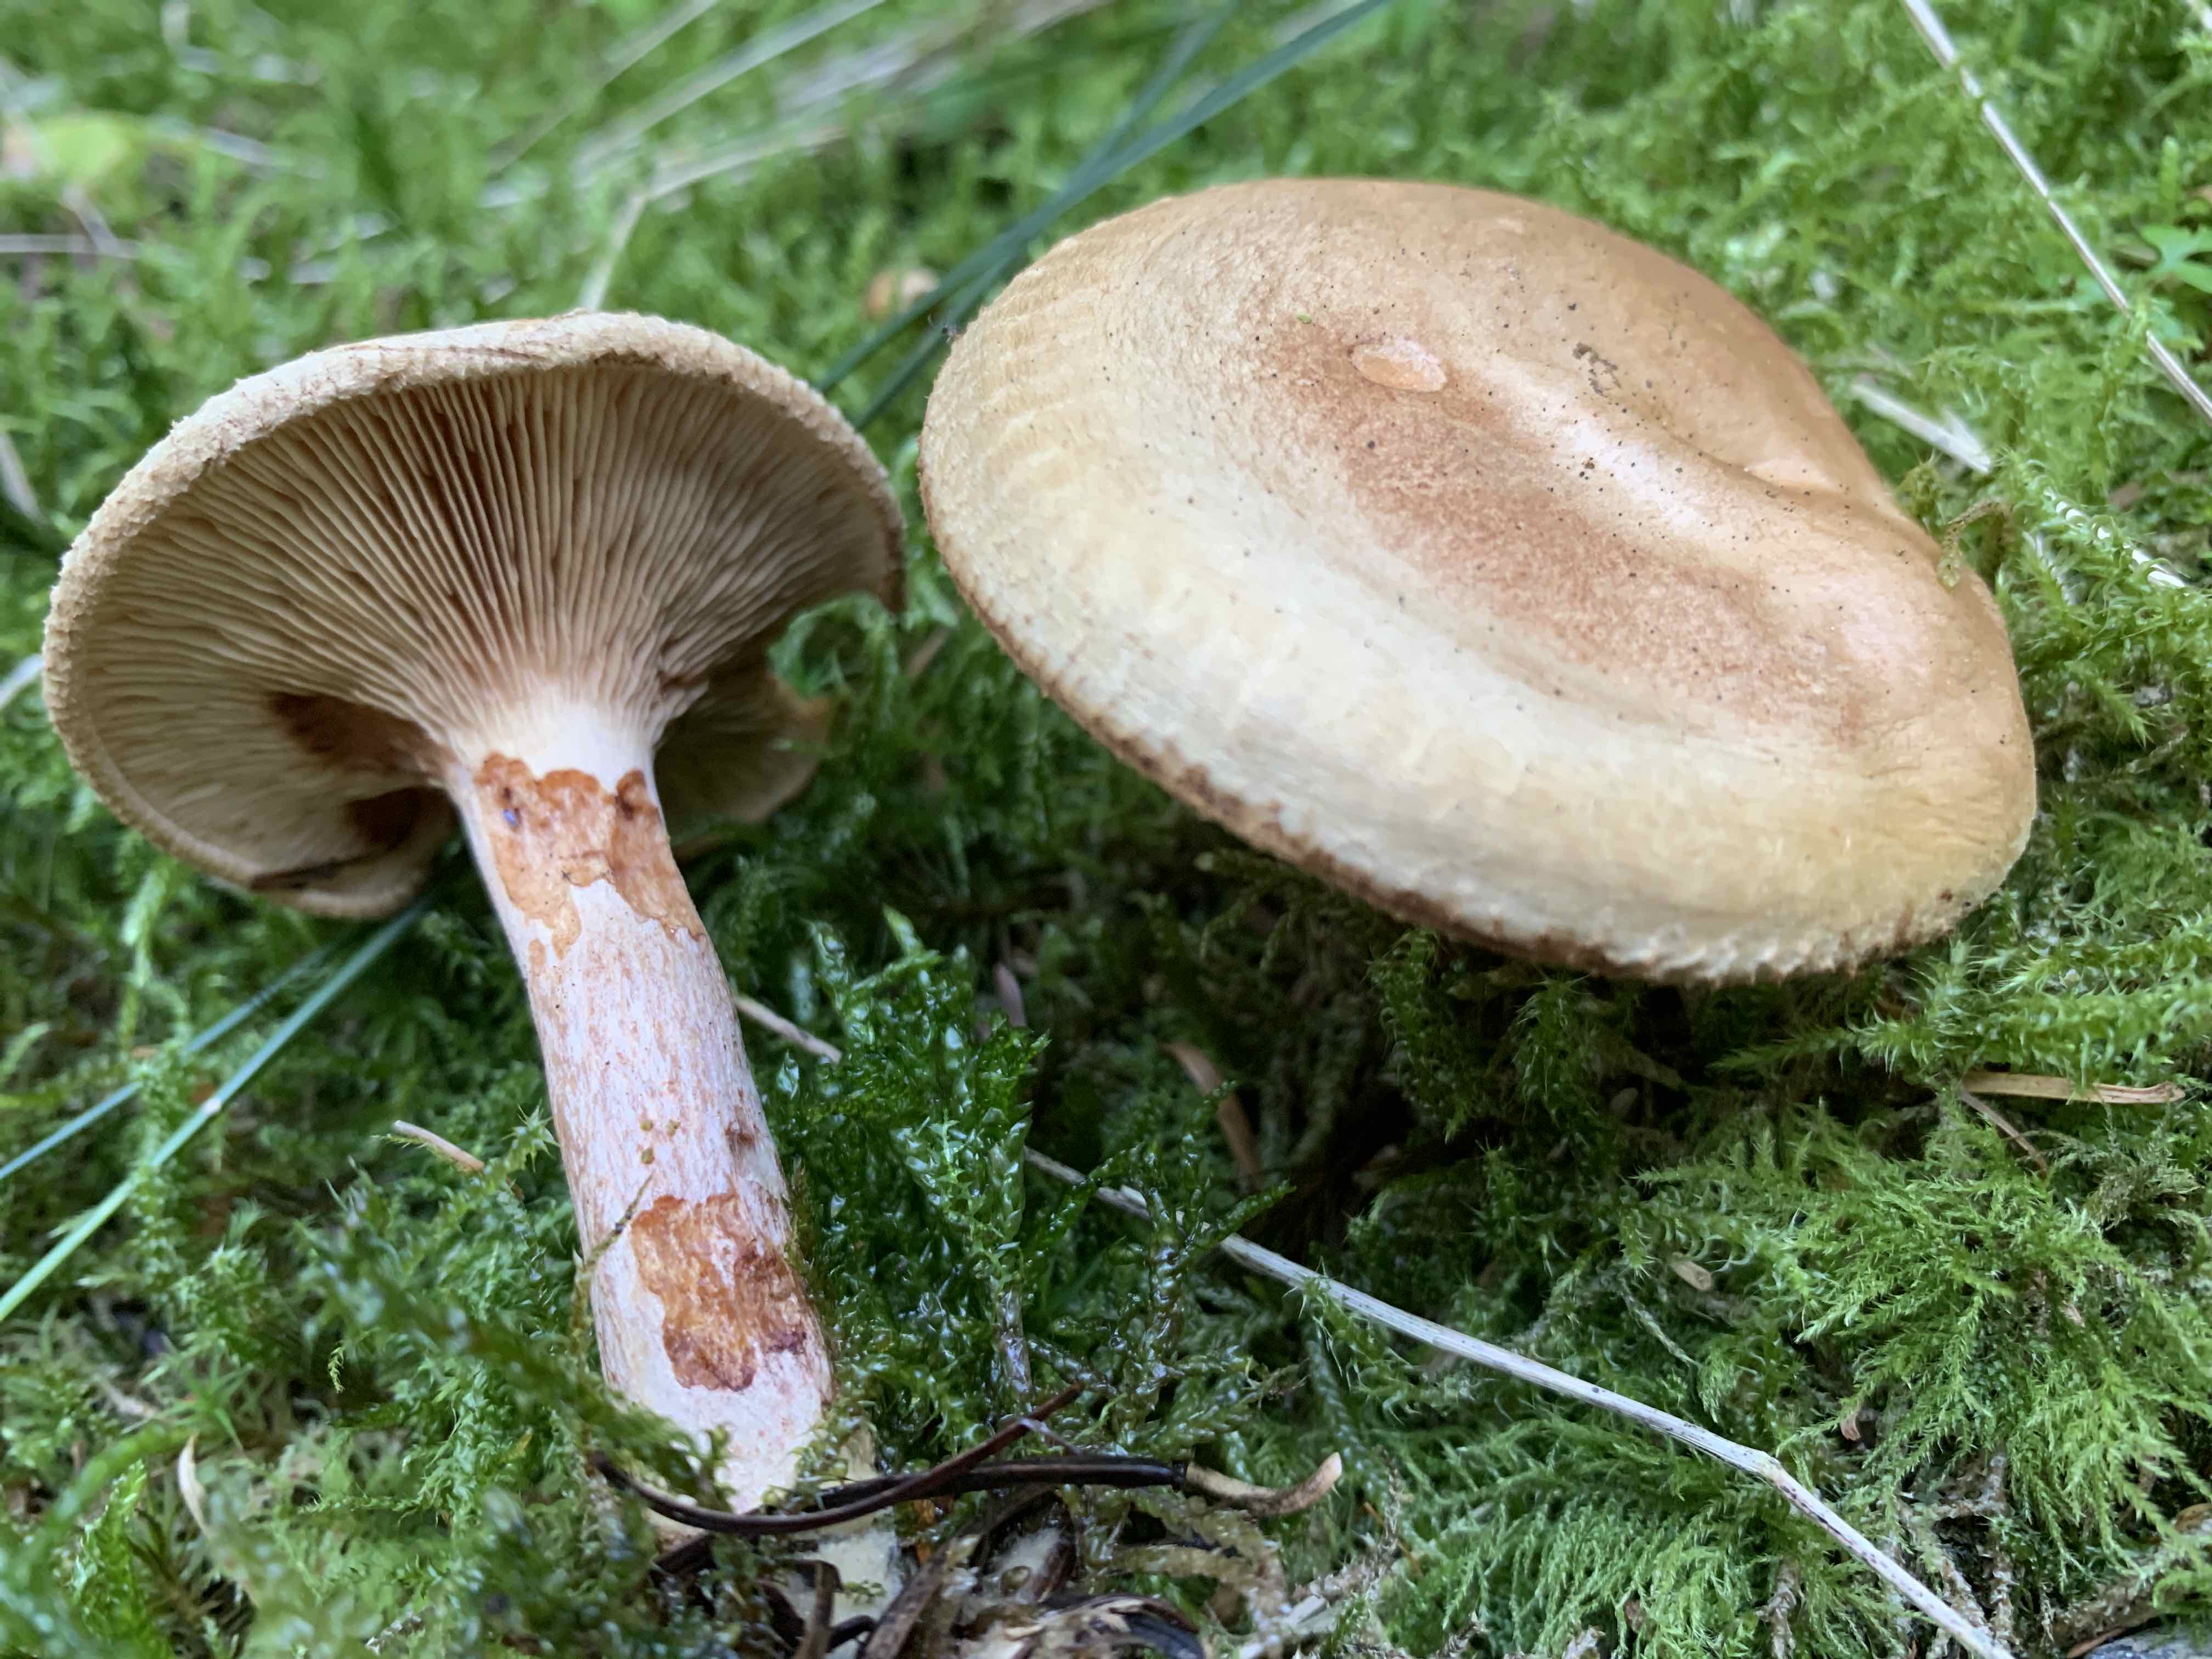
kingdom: Fungi
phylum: Basidiomycota
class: Agaricomycetes
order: Boletales
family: Paxillaceae
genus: Paxillus
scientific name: Paxillus involutus
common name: almindelig netbladhat
